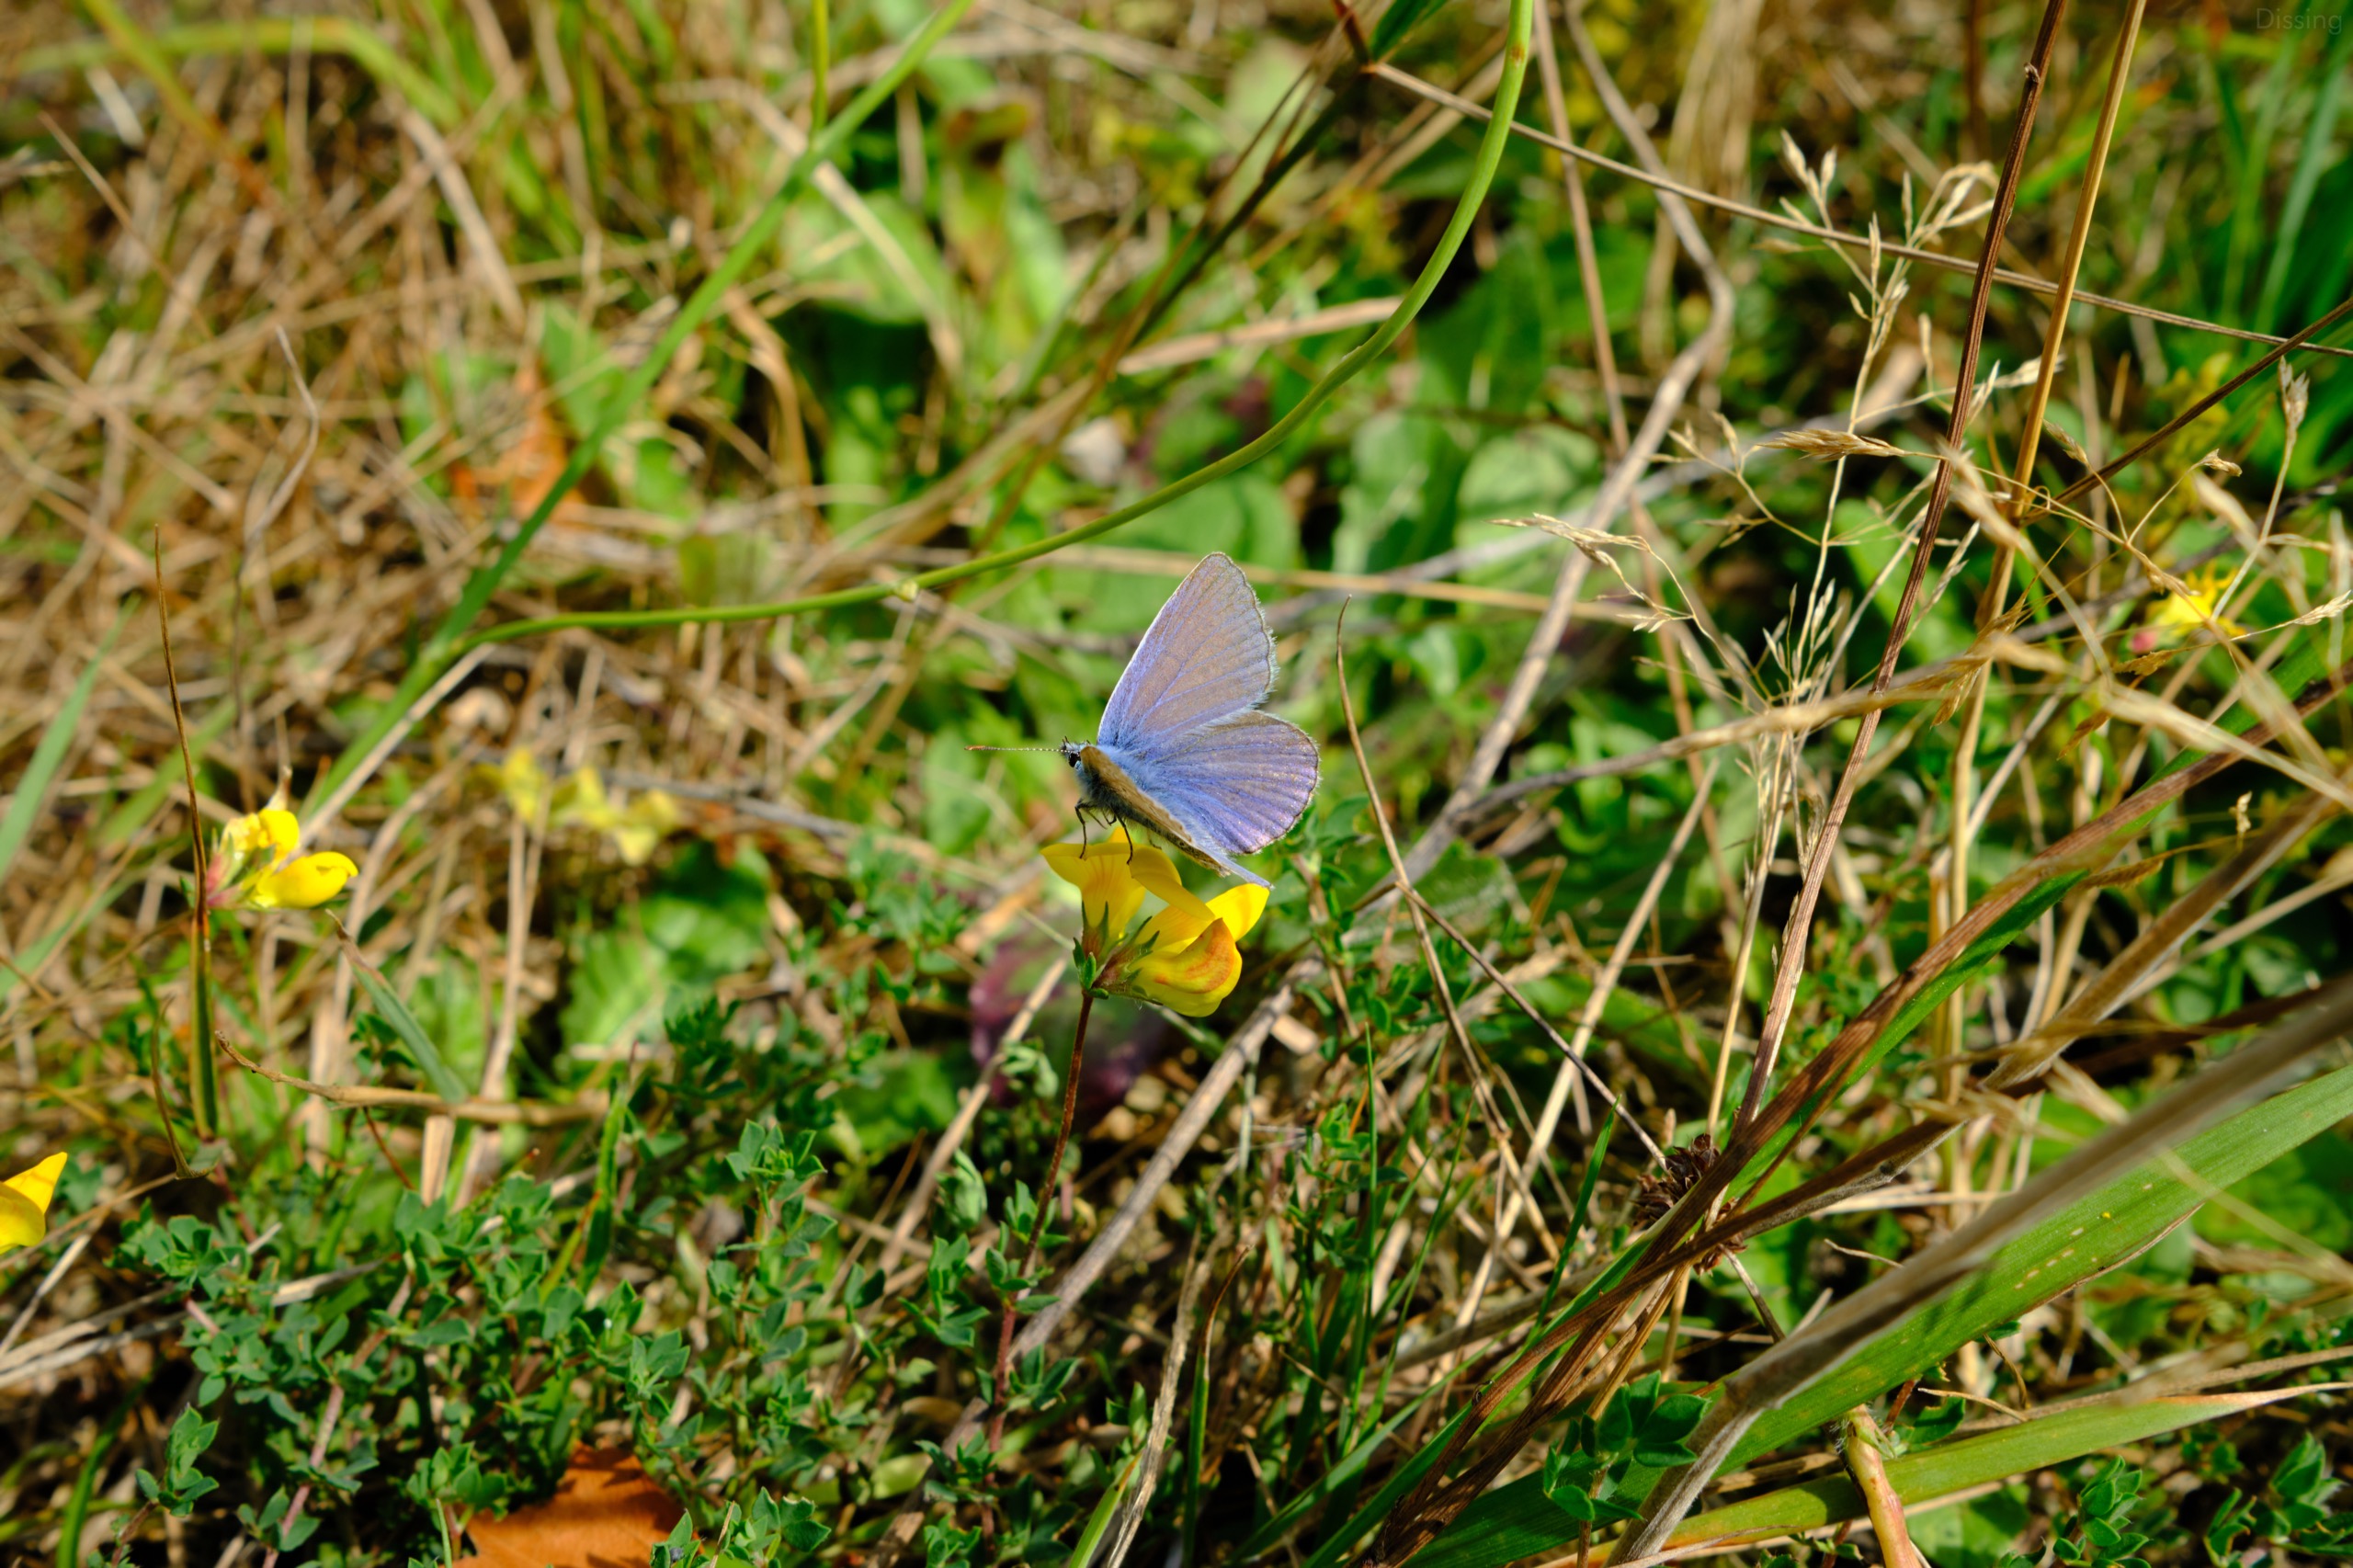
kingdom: Animalia
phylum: Arthropoda
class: Insecta
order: Lepidoptera
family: Lycaenidae
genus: Polyommatus
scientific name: Polyommatus icarus
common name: Almindelig blåfugl
